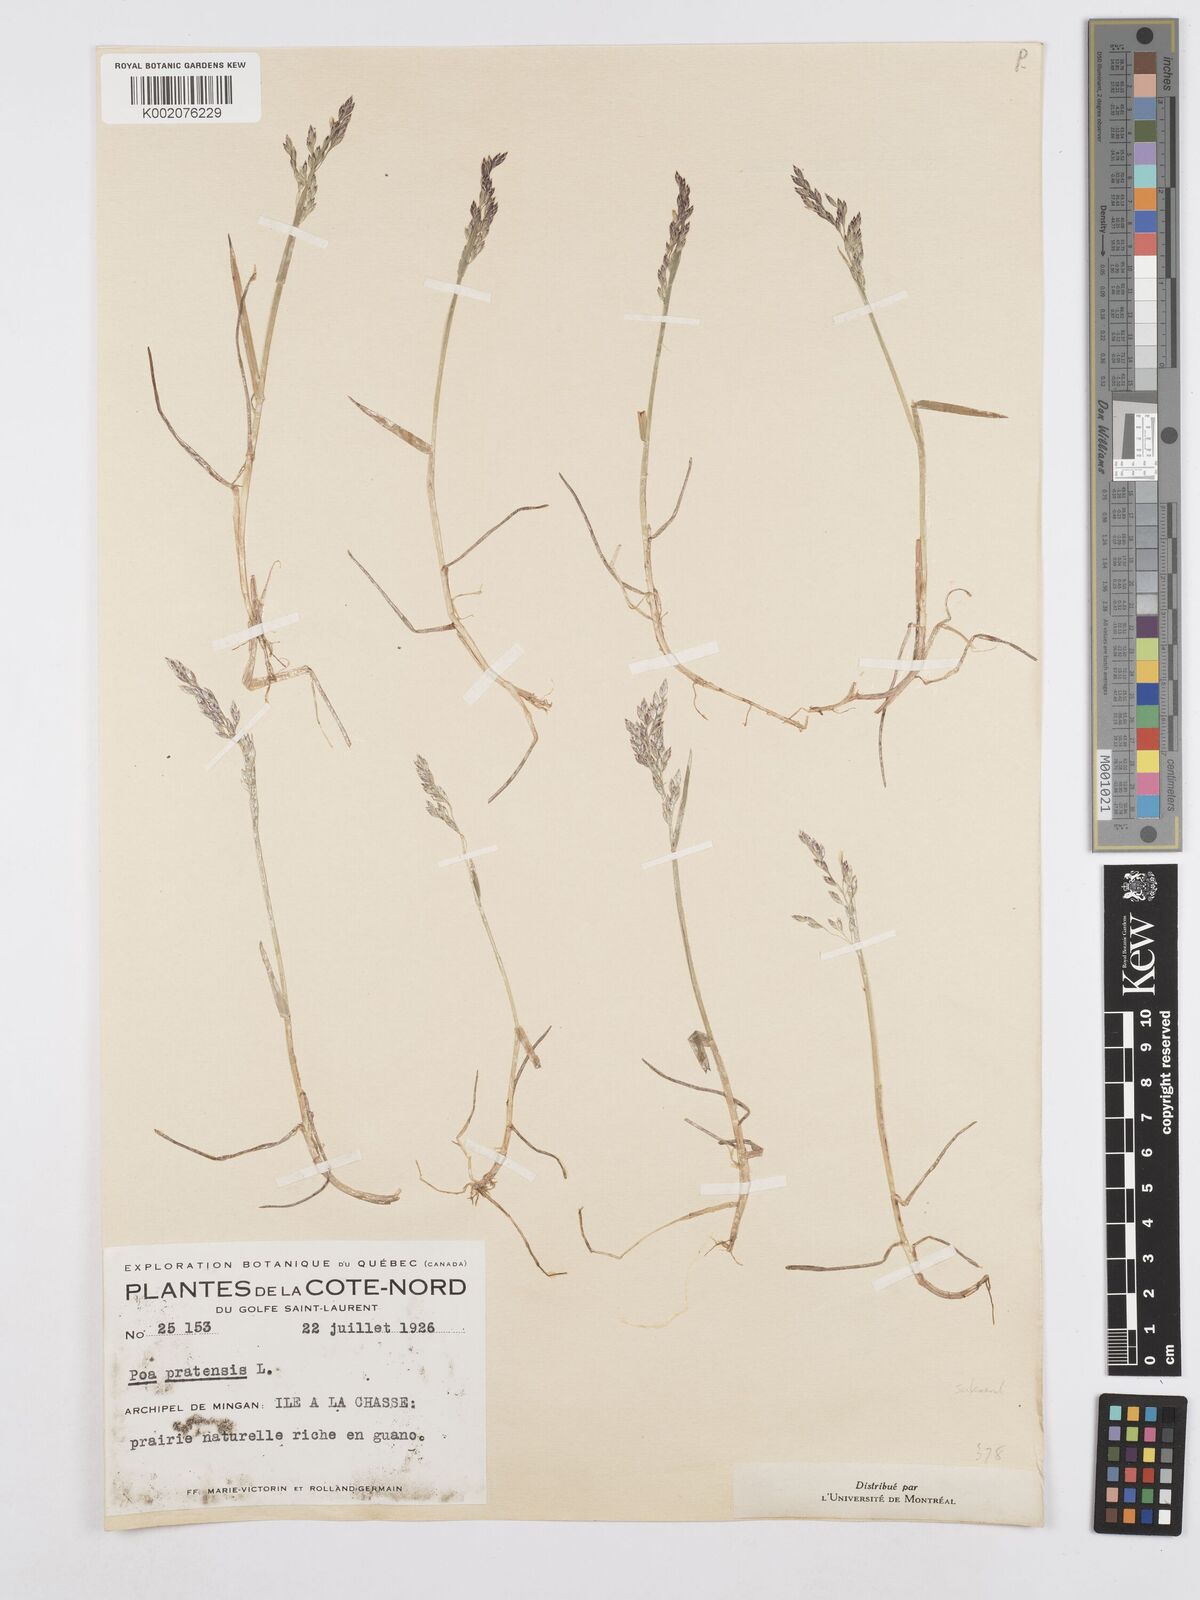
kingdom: Plantae
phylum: Tracheophyta
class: Liliopsida
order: Poales
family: Poaceae
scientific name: Poaceae
